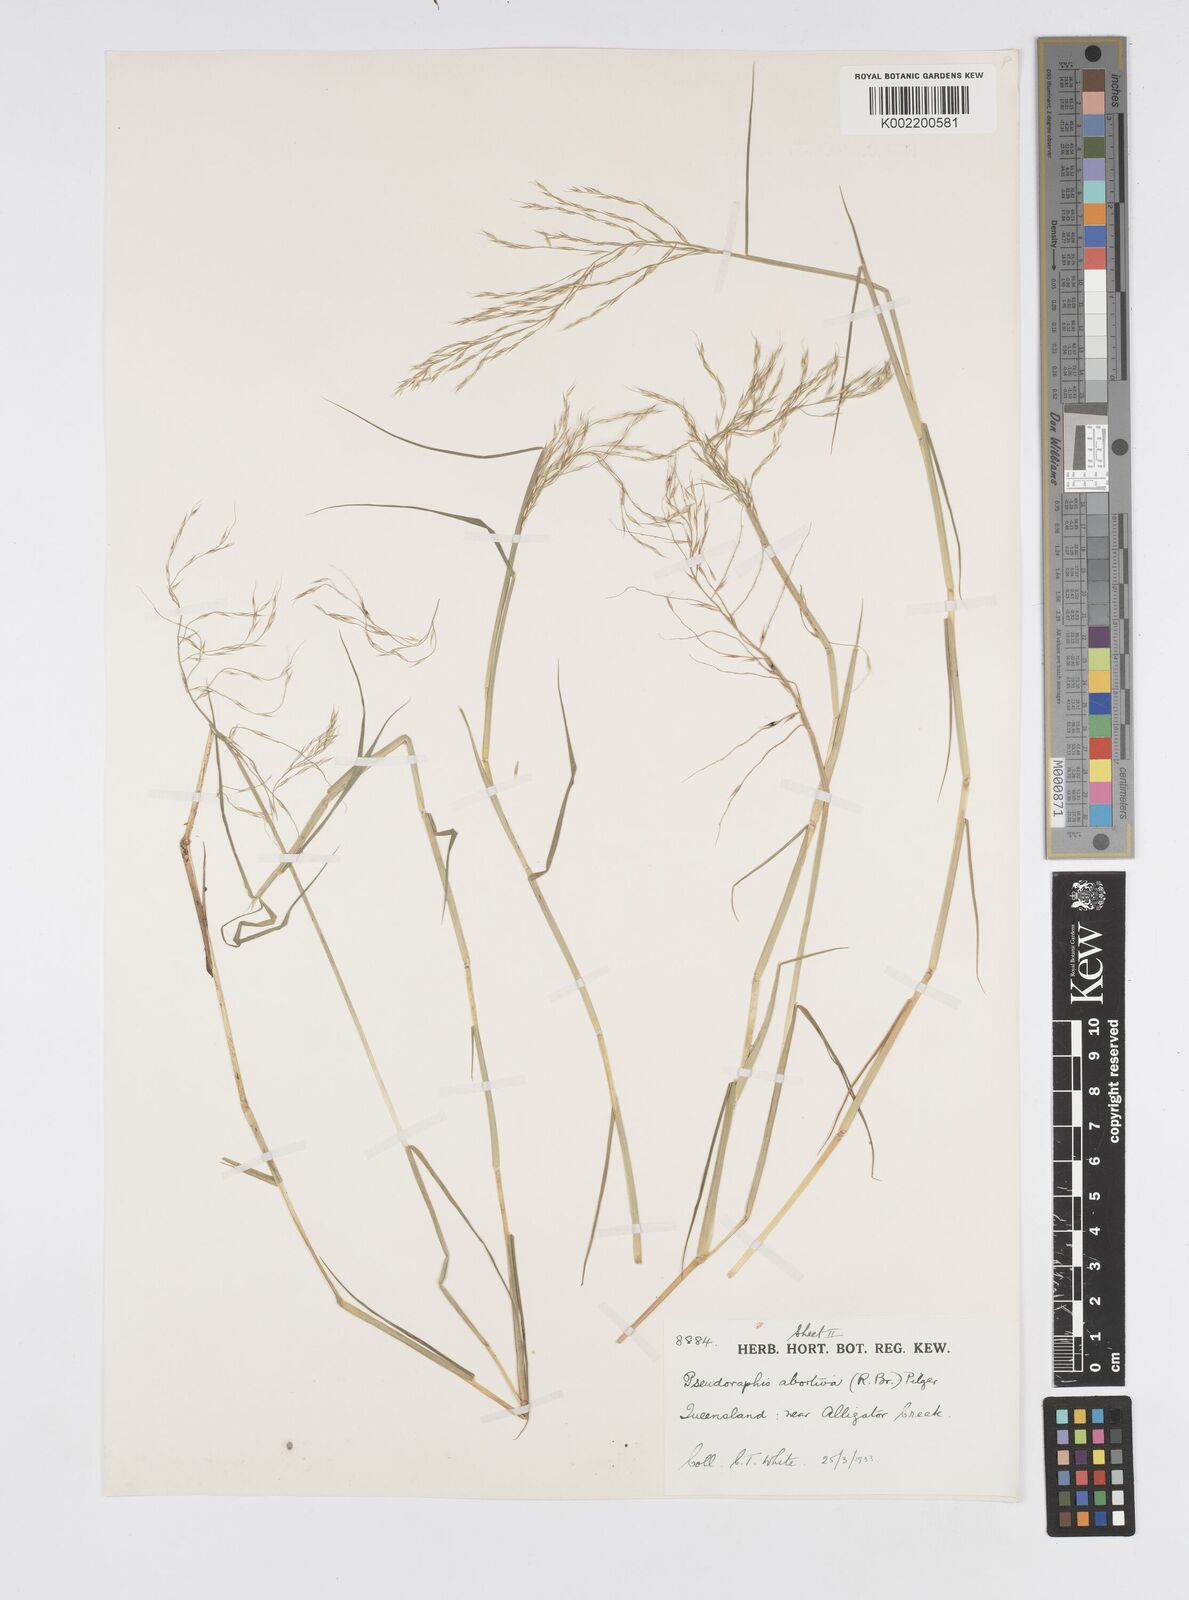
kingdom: Plantae
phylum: Tracheophyta
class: Liliopsida
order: Poales
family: Poaceae
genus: Pseudoraphis
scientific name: Pseudoraphis spinescens
